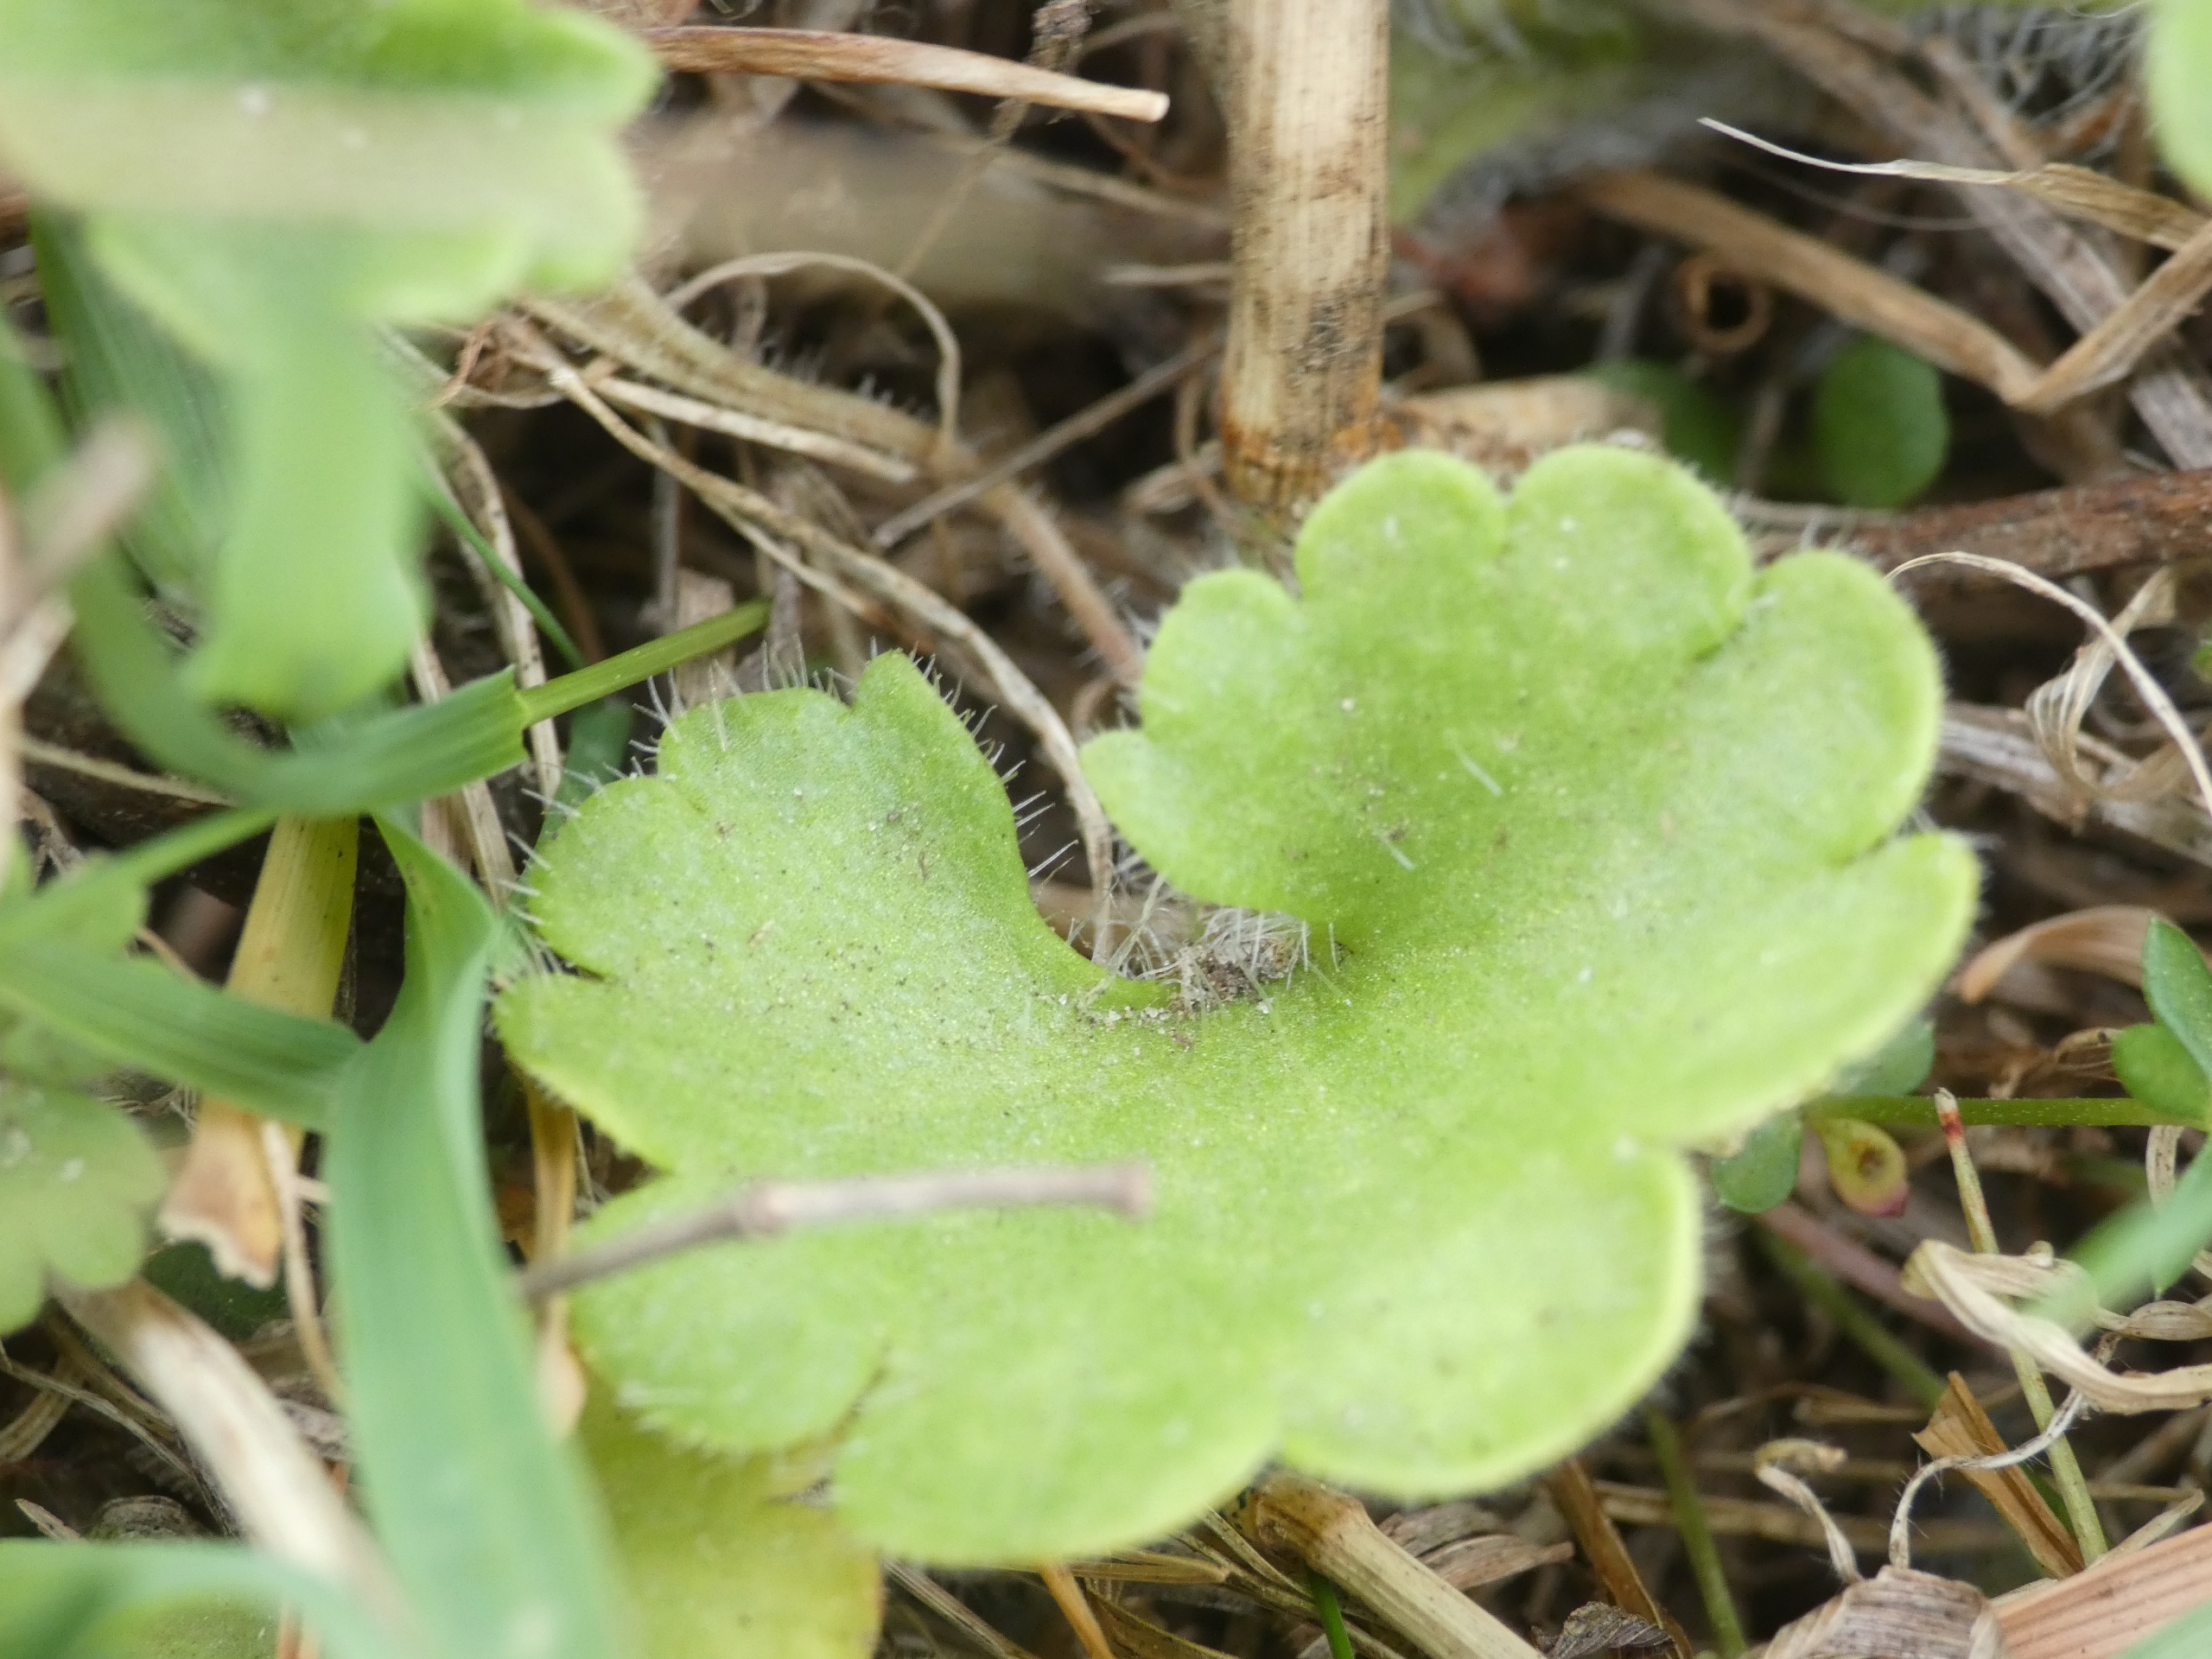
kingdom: Plantae
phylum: Tracheophyta
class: Magnoliopsida
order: Saxifragales
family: Saxifragaceae
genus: Saxifraga
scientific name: Saxifraga granulata
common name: Kornet stenbræk
